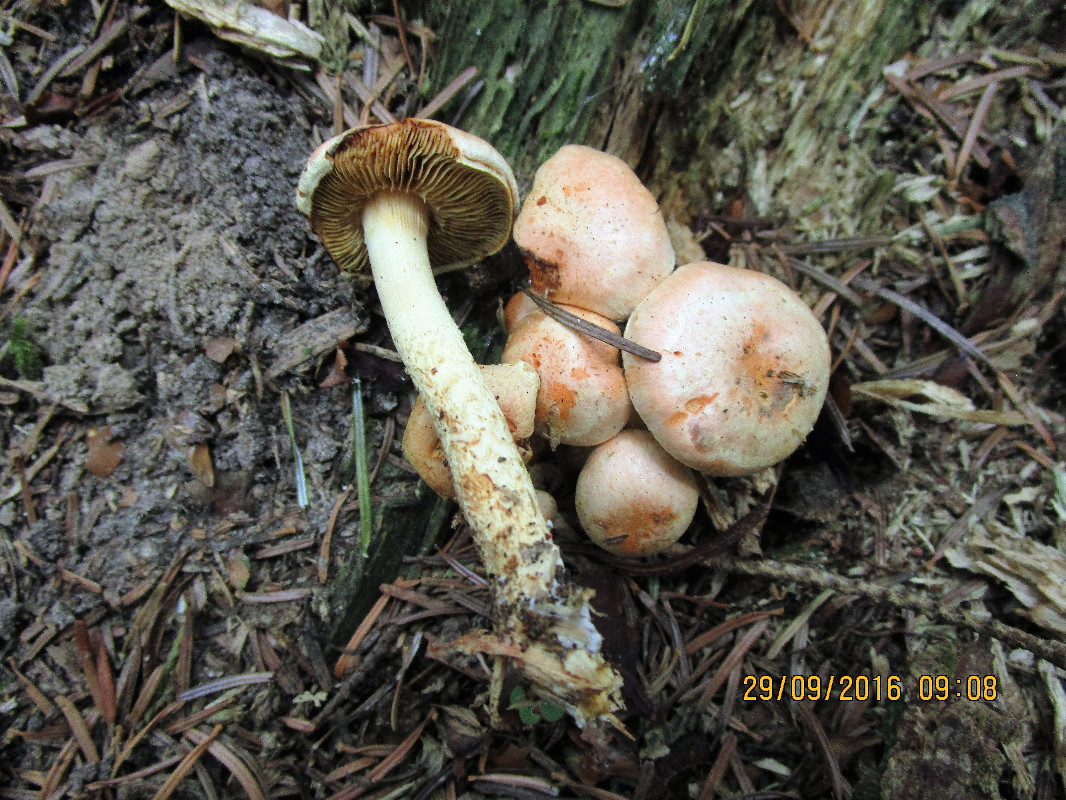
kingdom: Fungi
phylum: Basidiomycota
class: Agaricomycetes
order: Agaricales
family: Strophariaceae
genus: Pyrrhulomyces
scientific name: Pyrrhulomyces astragalinus
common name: safran-skælhat
